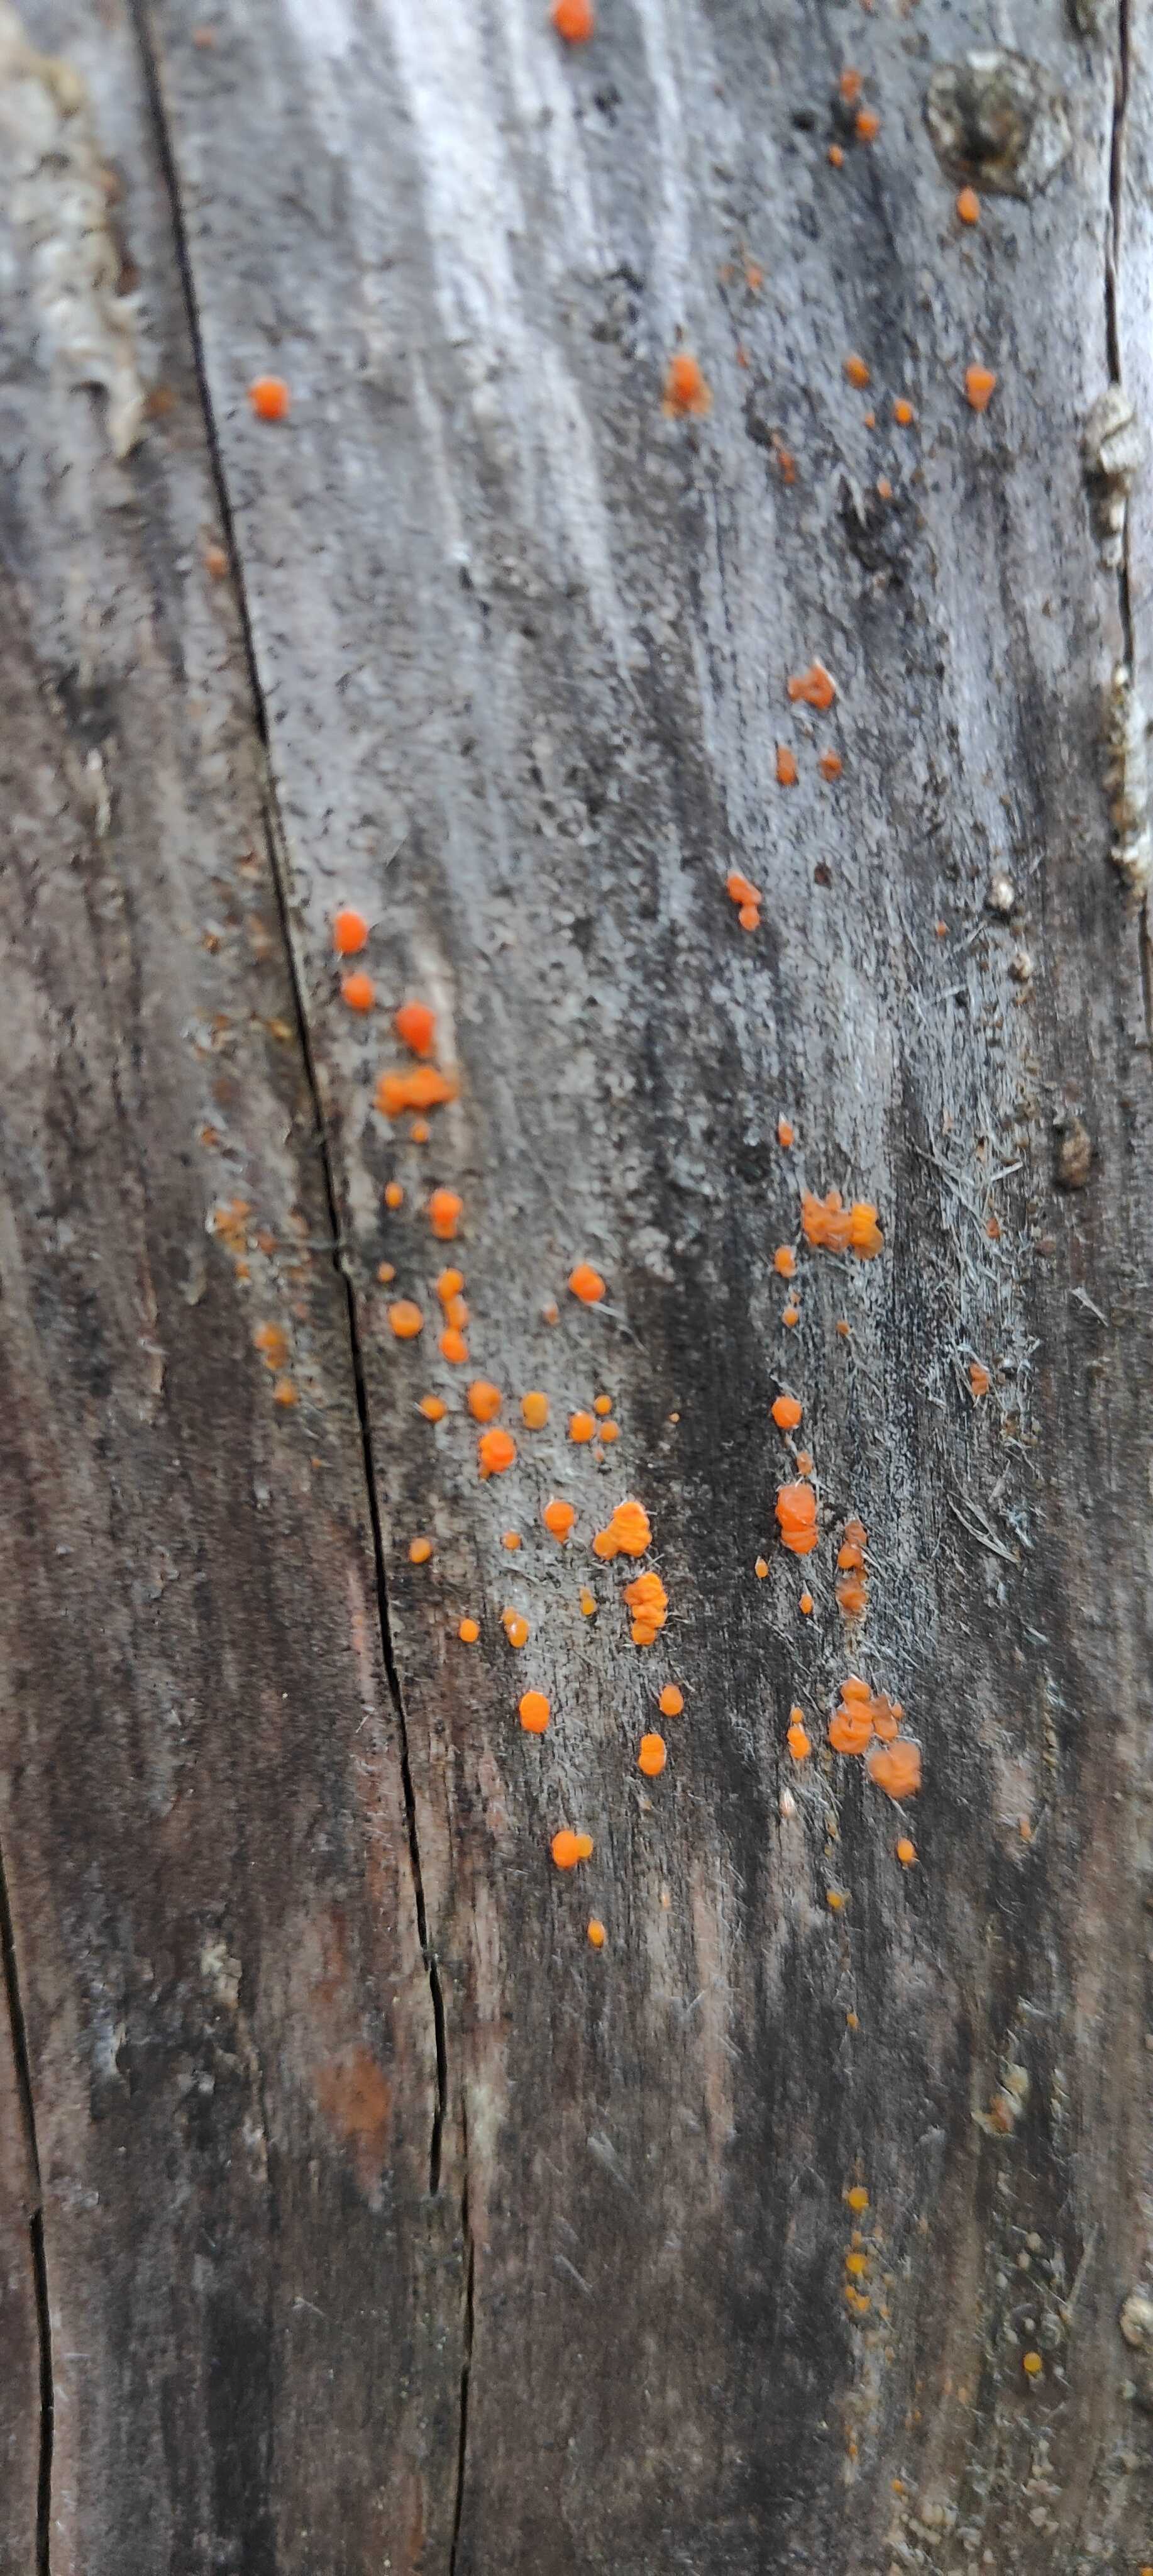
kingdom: Fungi
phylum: Basidiomycota
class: Dacrymycetes
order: Dacrymycetales
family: Dacrymycetaceae
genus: Dacrymyces
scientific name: Dacrymyces stillatus
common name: almindelig tåresvamp
